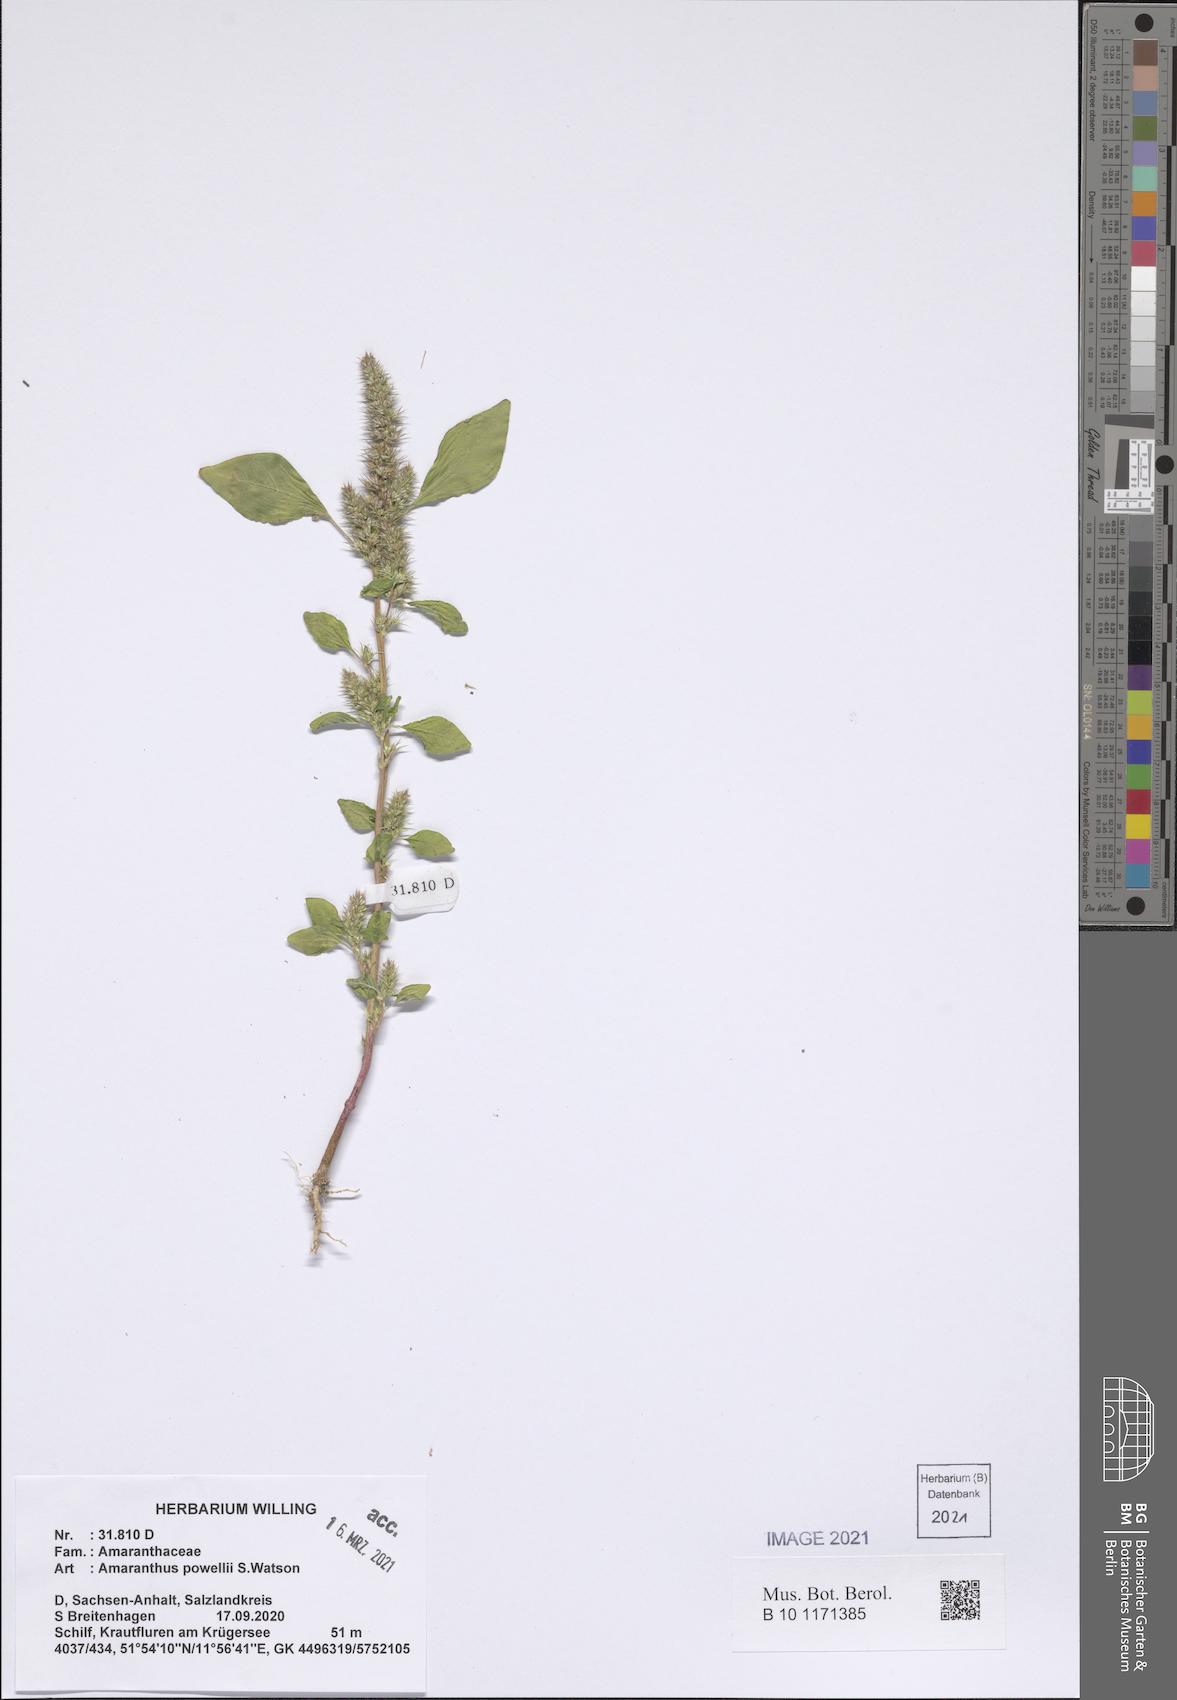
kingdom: Plantae
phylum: Tracheophyta
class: Magnoliopsida
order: Caryophyllales
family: Amaranthaceae
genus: Amaranthus
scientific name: Amaranthus powellii
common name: Powell's amaranth
